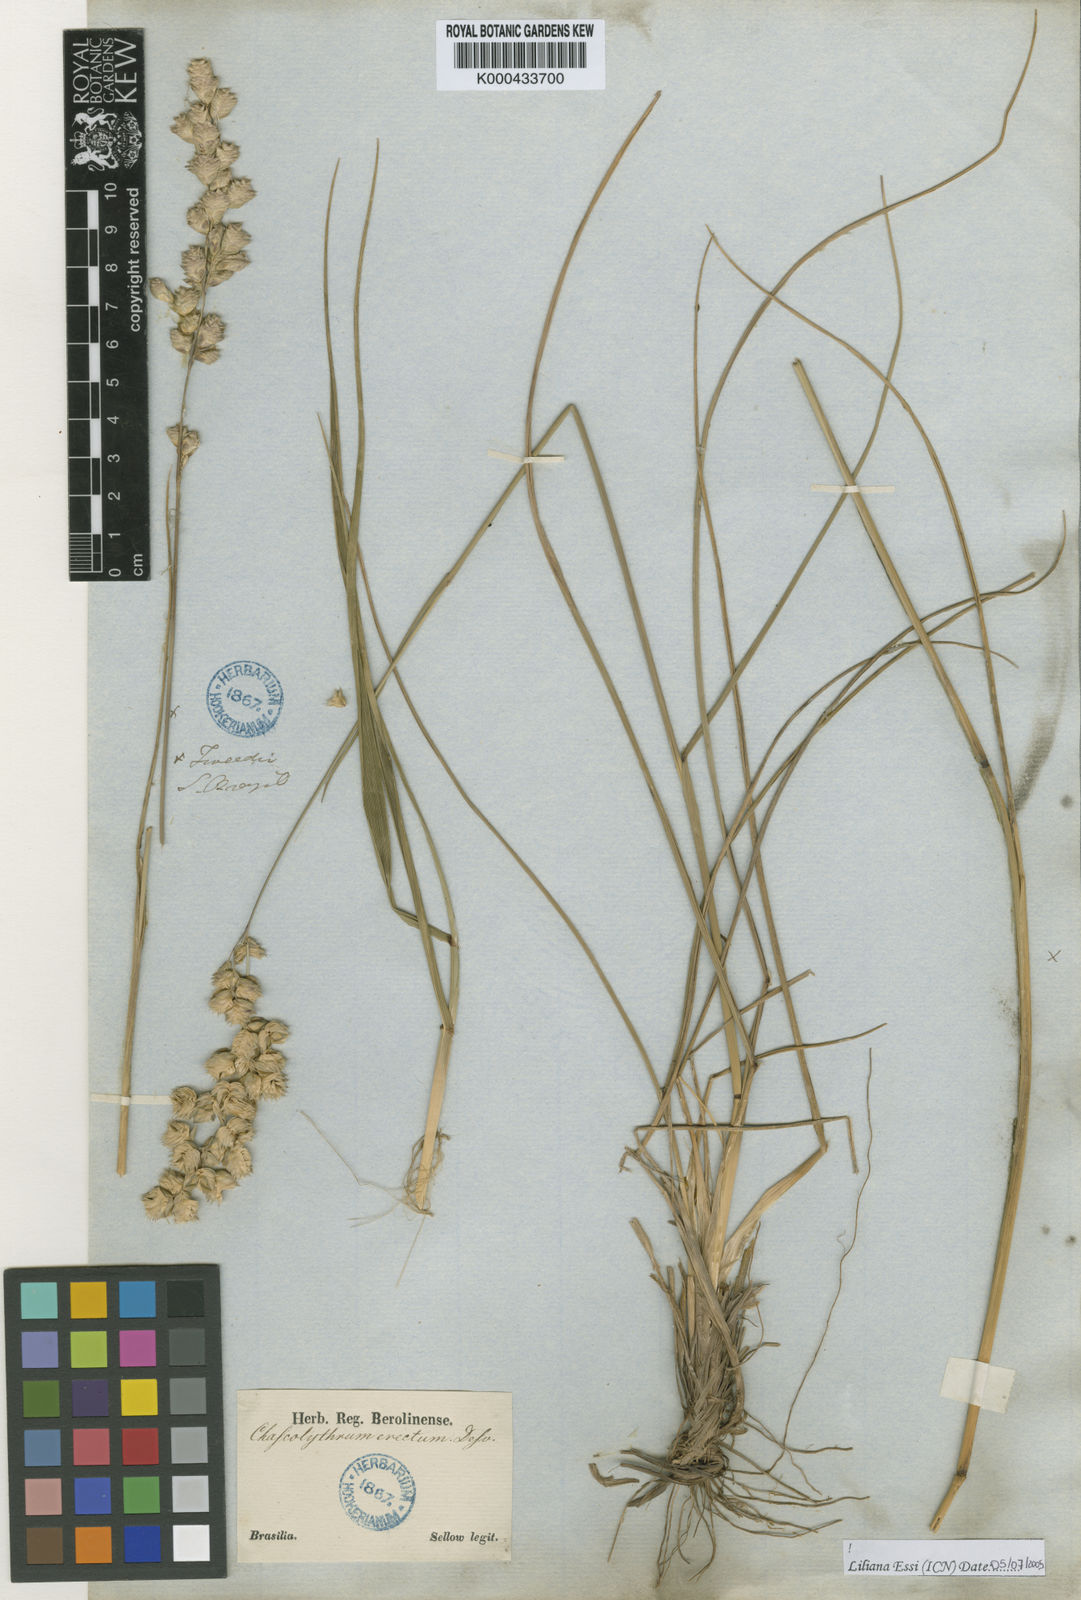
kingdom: Plantae
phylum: Tracheophyta
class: Liliopsida
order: Poales
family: Poaceae
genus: Chascolytrum
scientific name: Chascolytrum erectum
